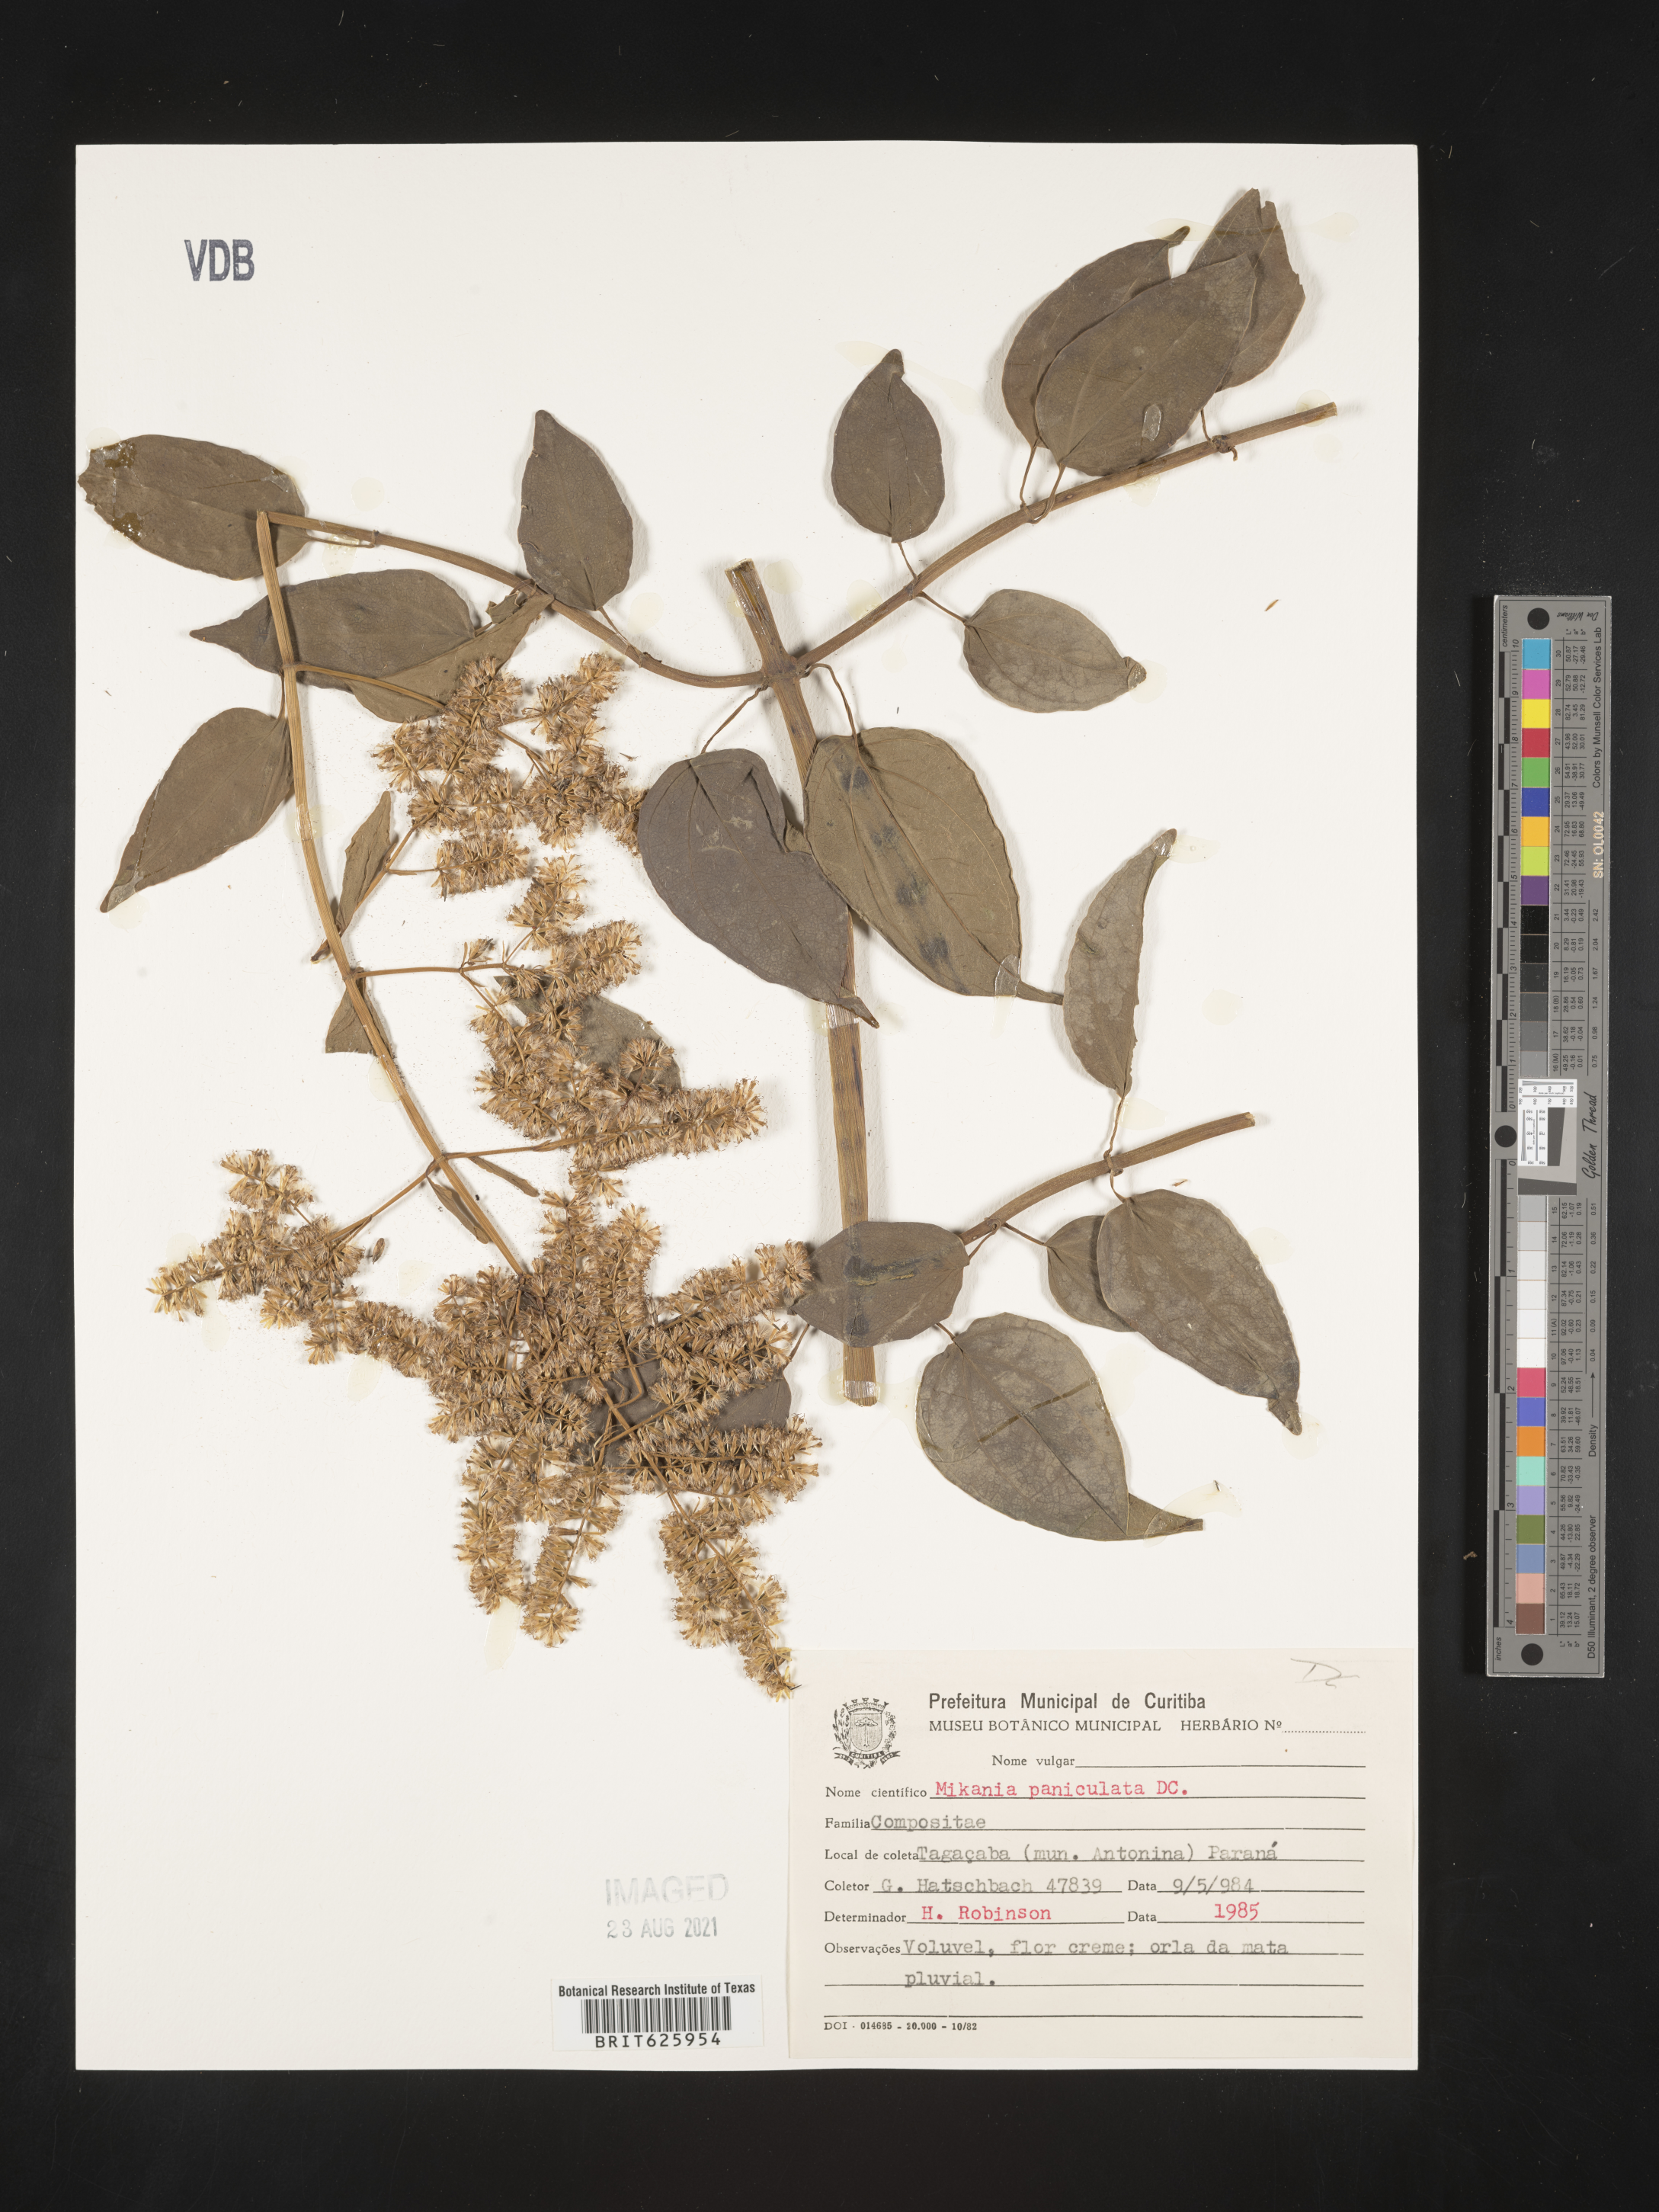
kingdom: Plantae
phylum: Tracheophyta
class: Magnoliopsida
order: Asterales
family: Asteraceae
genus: Mikania
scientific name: Mikania paniculata
